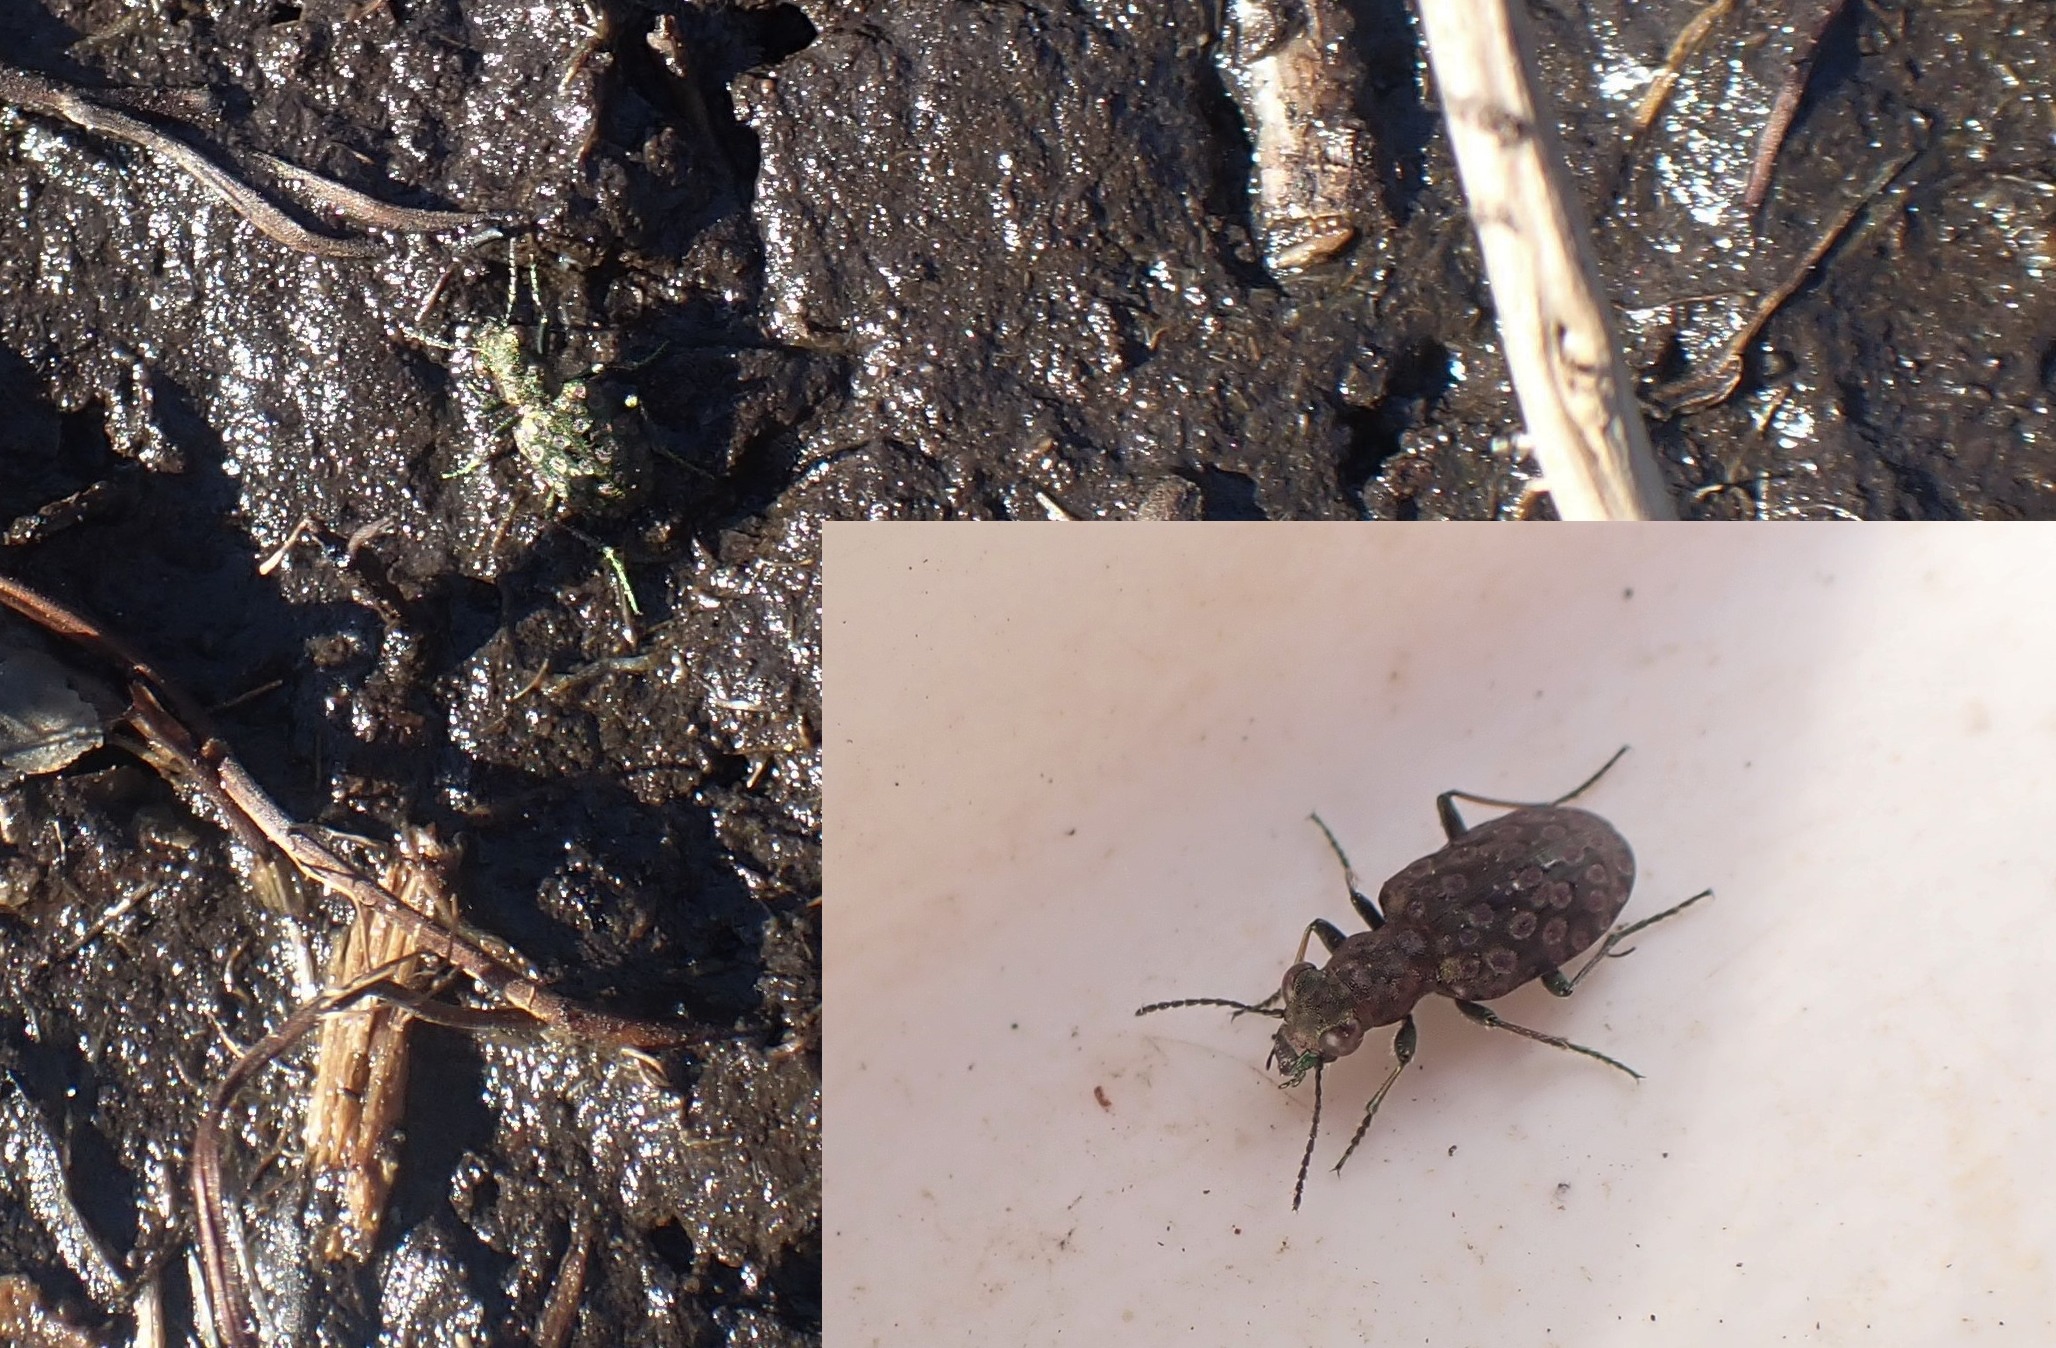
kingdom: Animalia
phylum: Arthropoda
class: Insecta
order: Coleoptera
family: Carabidae
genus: Elaphrus
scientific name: Elaphrus riparius
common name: Grøn øjenløber
